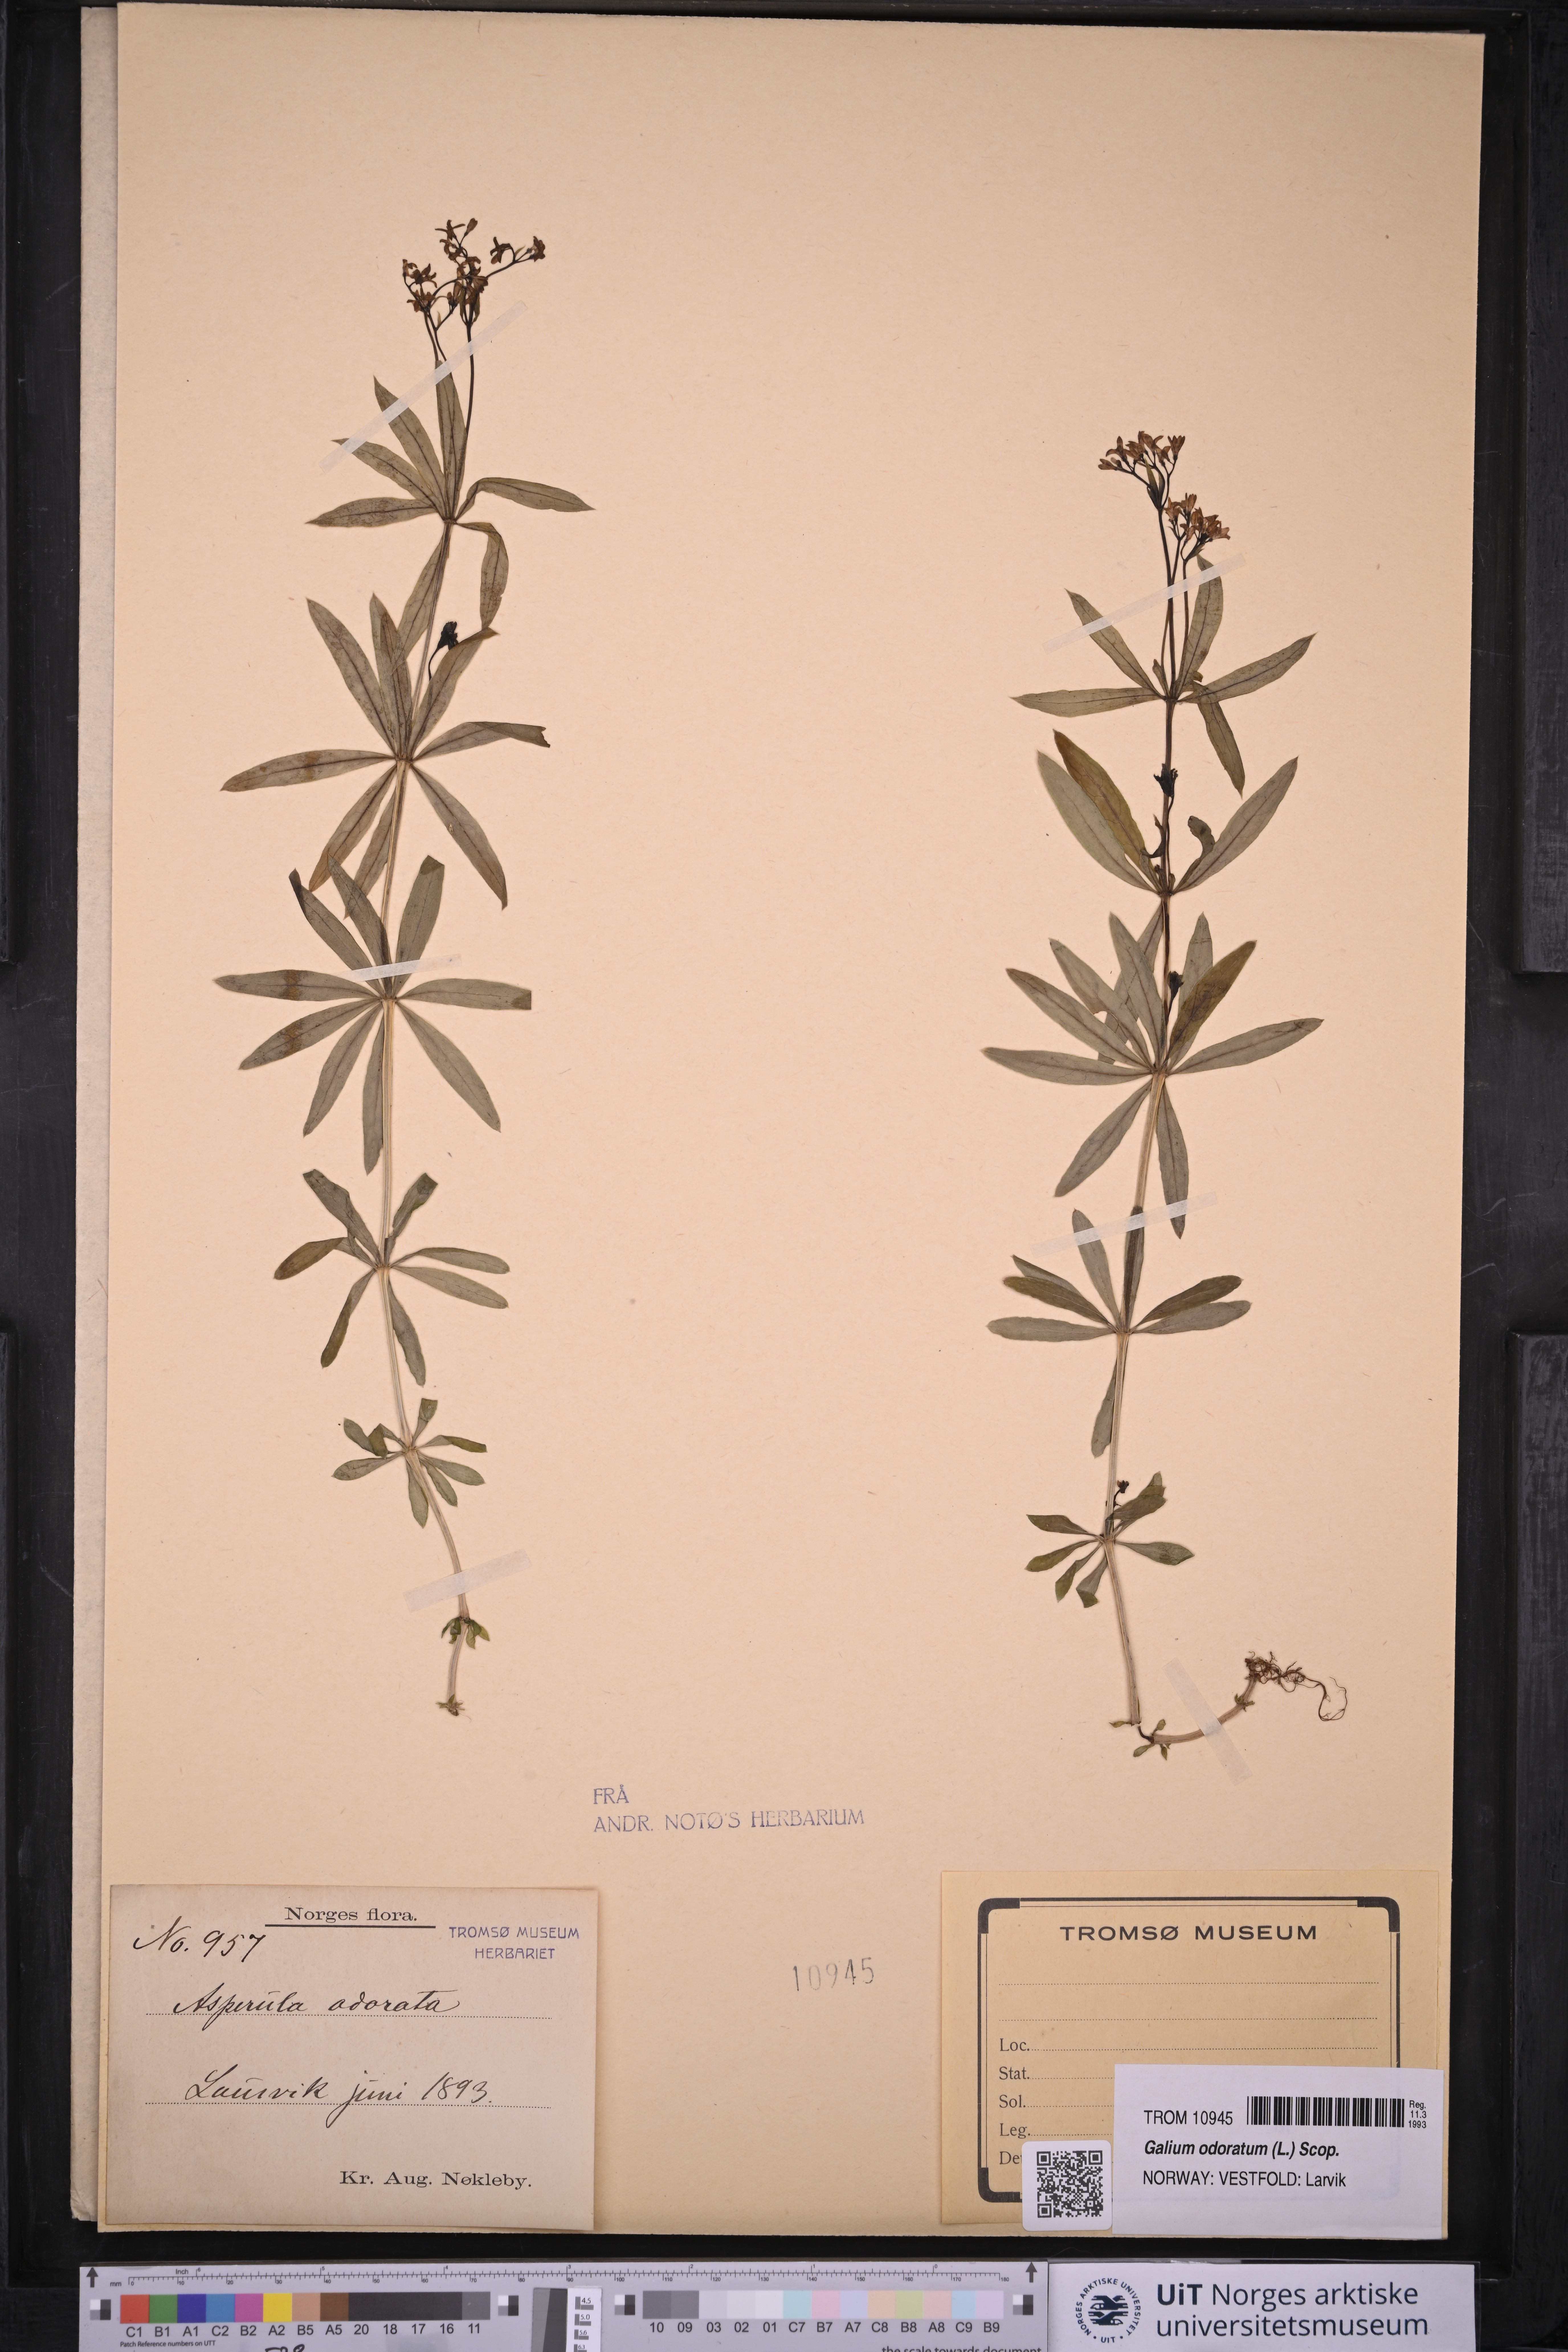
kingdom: Plantae
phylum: Tracheophyta
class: Magnoliopsida
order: Gentianales
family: Rubiaceae
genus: Galium
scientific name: Galium odoratum
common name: Sweet woodruff
